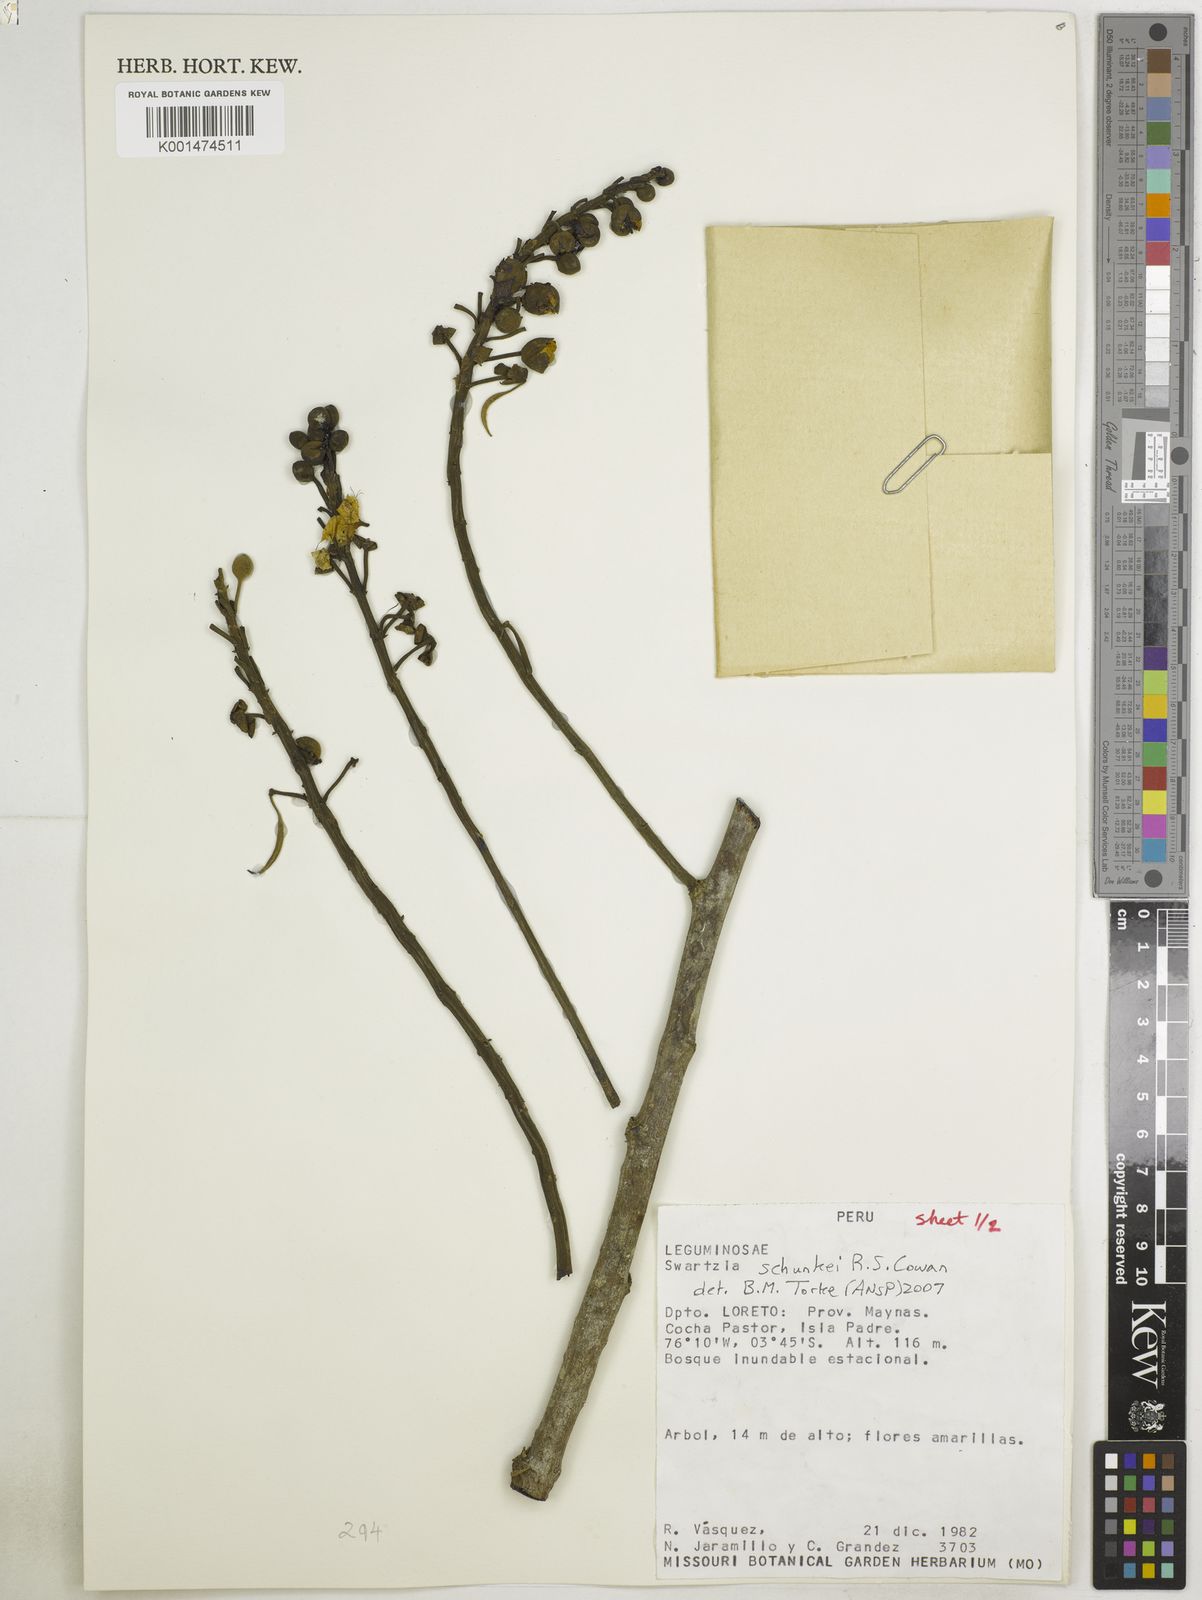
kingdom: Plantae
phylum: Tracheophyta
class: Magnoliopsida
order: Fabales
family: Fabaceae
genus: Swartzia
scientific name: Swartzia schunkei
